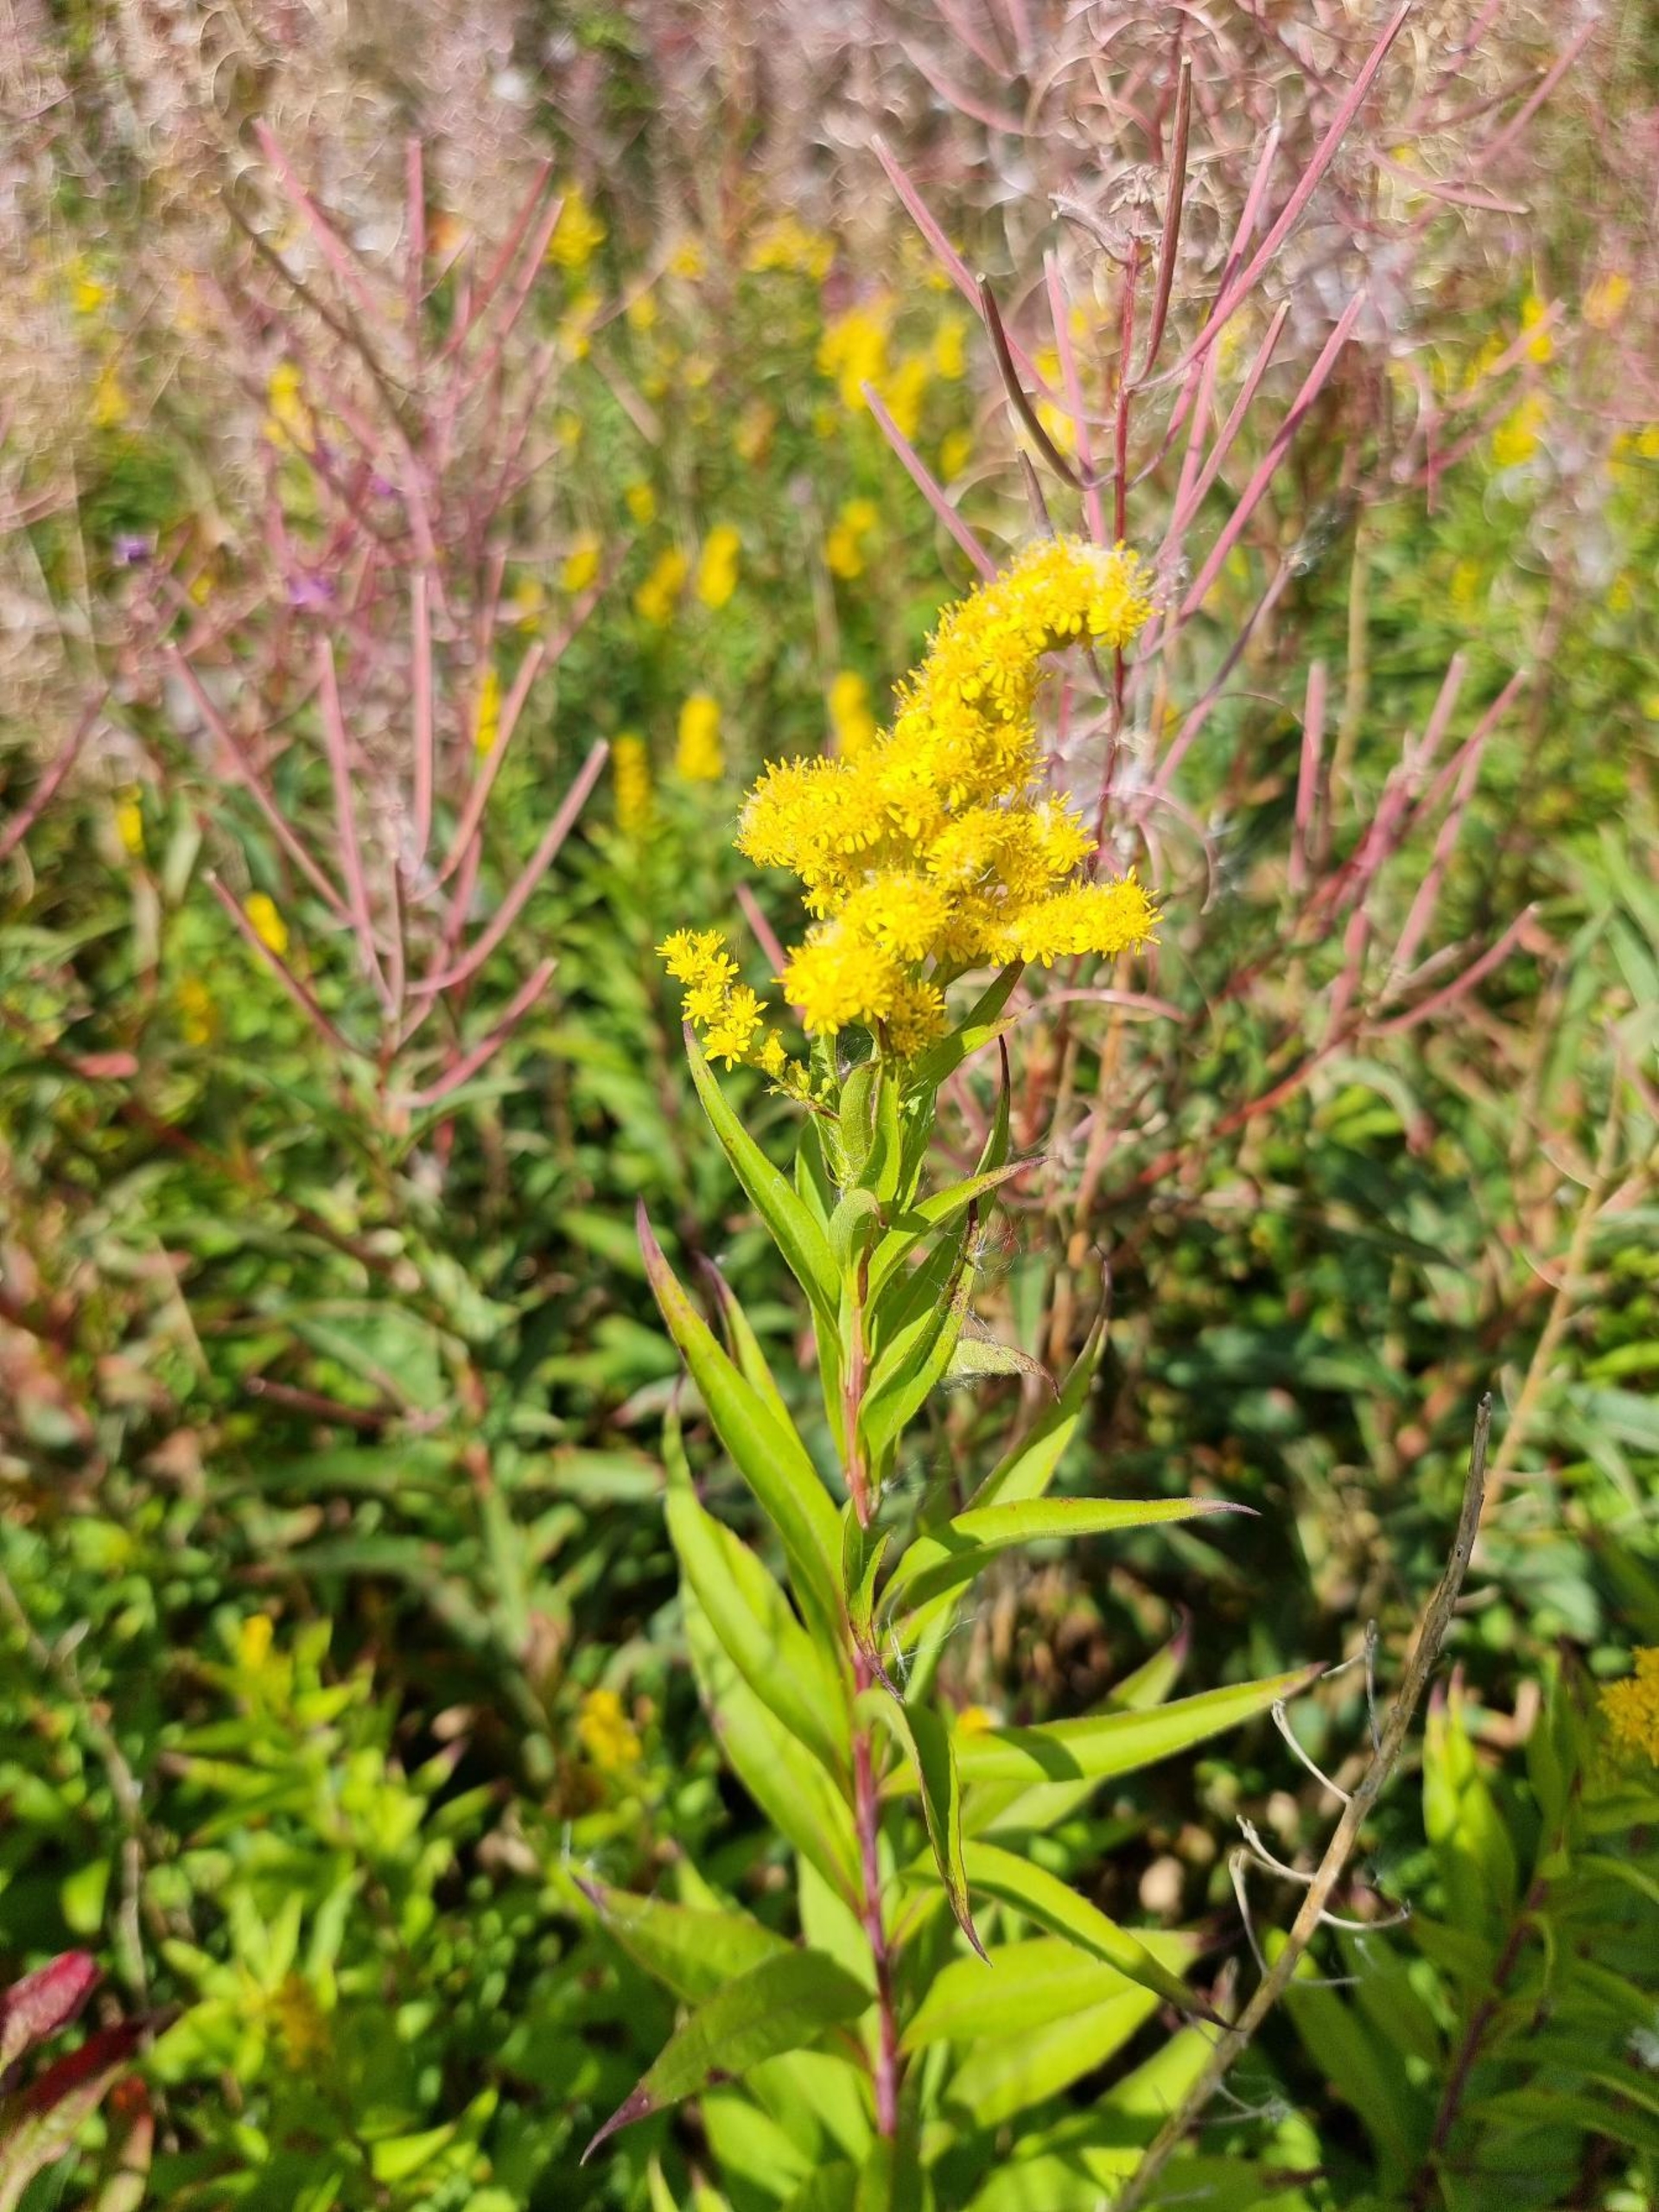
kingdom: Plantae
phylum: Tracheophyta
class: Magnoliopsida
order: Asterales
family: Asteraceae
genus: Solidago
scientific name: Solidago gigantea
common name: Sildig gyldenris
